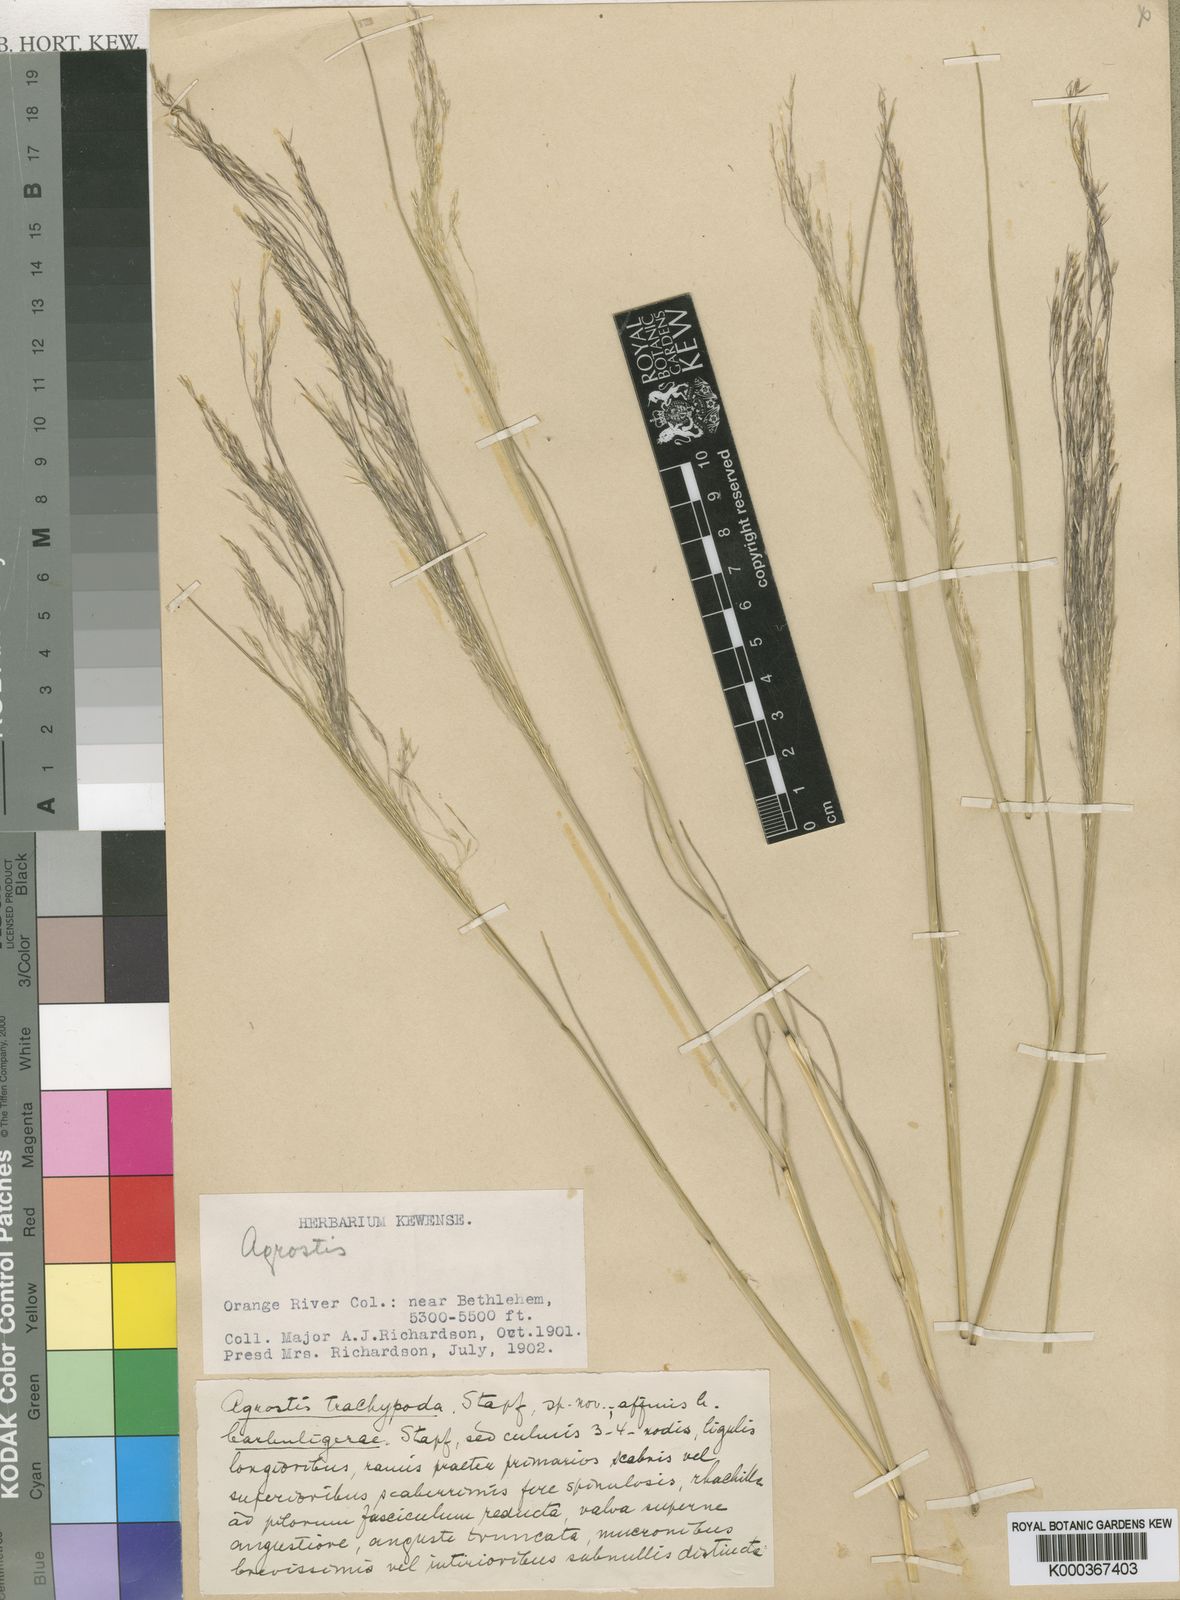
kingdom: Plantae
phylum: Tracheophyta
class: Liliopsida
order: Poales
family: Poaceae
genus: Lachnagrostis
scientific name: Lachnagrostis eriantha
